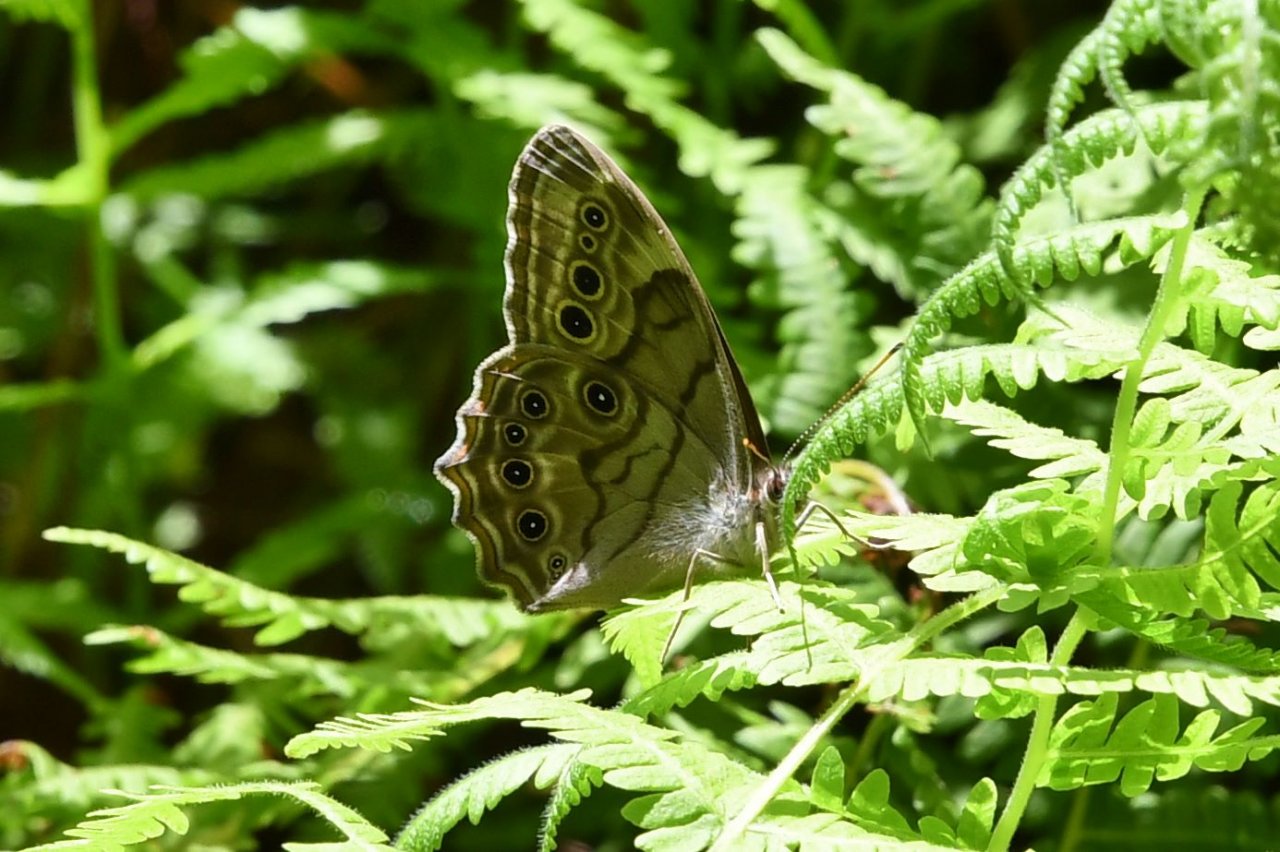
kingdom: Animalia
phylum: Arthropoda
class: Insecta
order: Lepidoptera
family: Nymphalidae
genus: Lethe
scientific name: Lethe anthedon
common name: Northern Pearly-Eye
